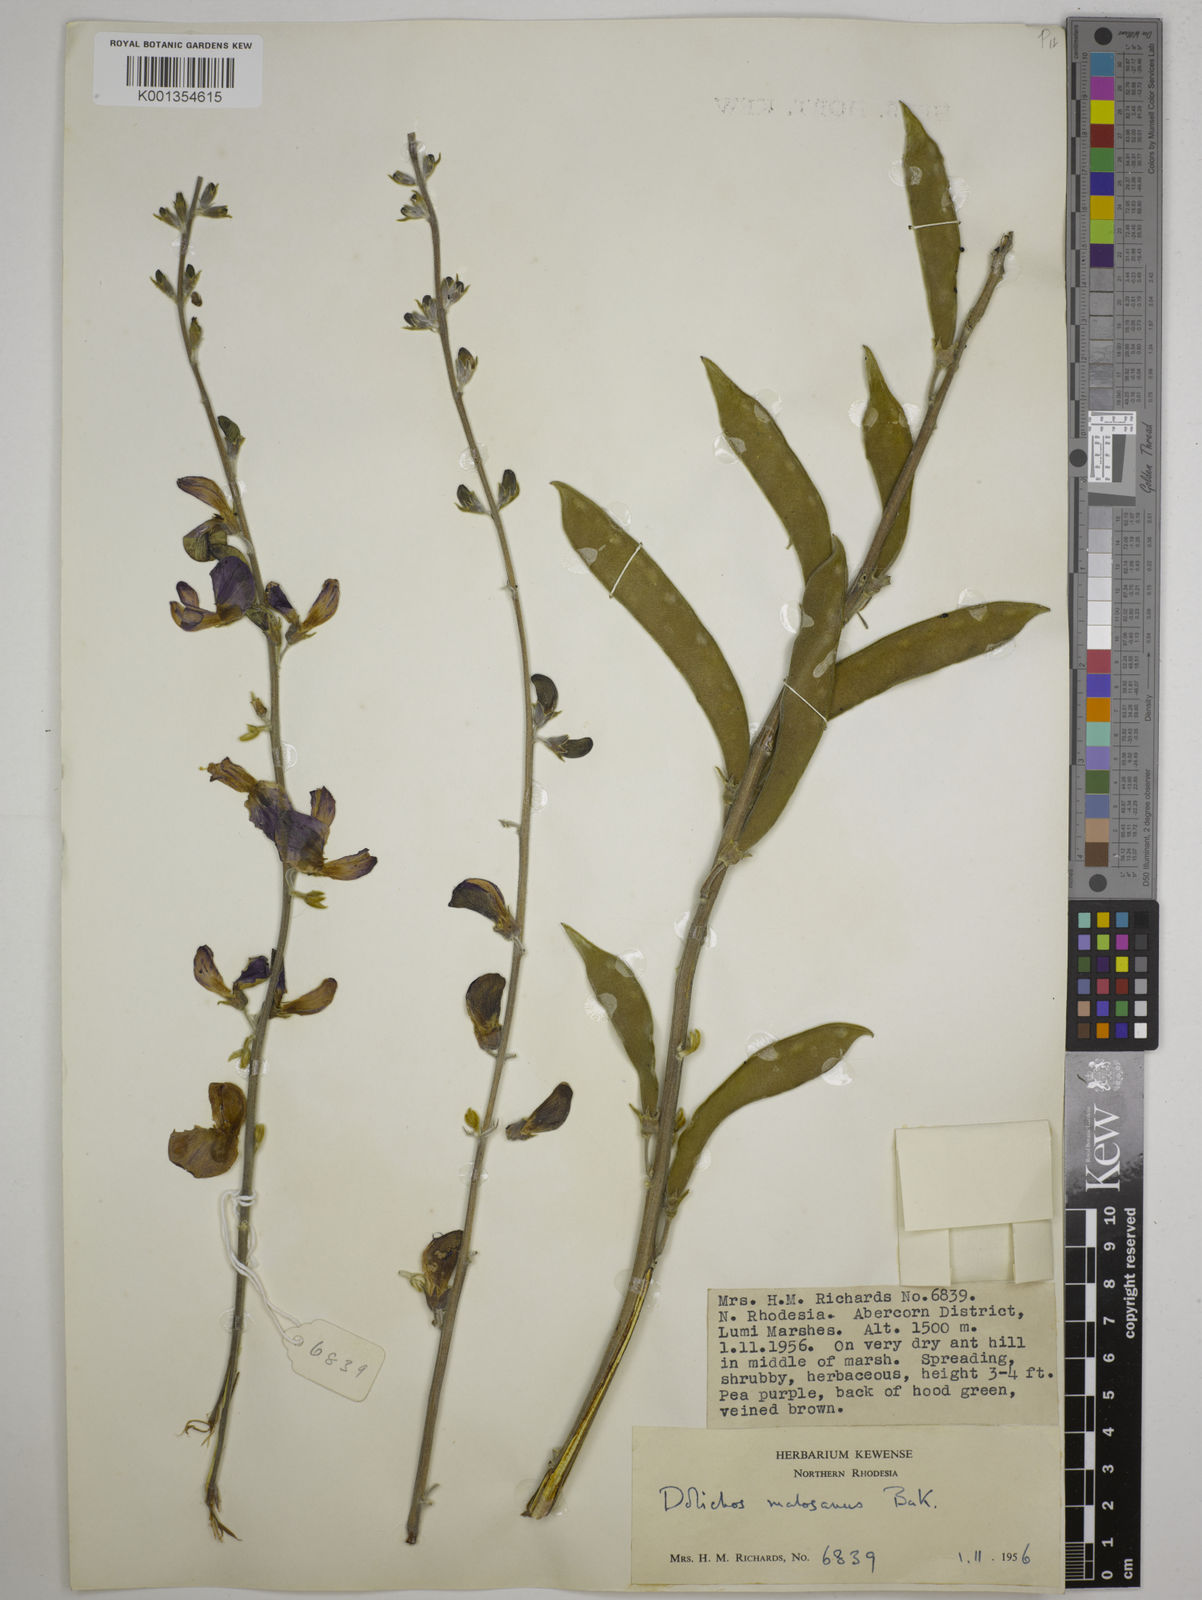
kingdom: Plantae
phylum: Tracheophyta
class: Magnoliopsida
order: Fabales
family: Fabaceae
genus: Dolichos
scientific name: Dolichos kilimandscharicus
